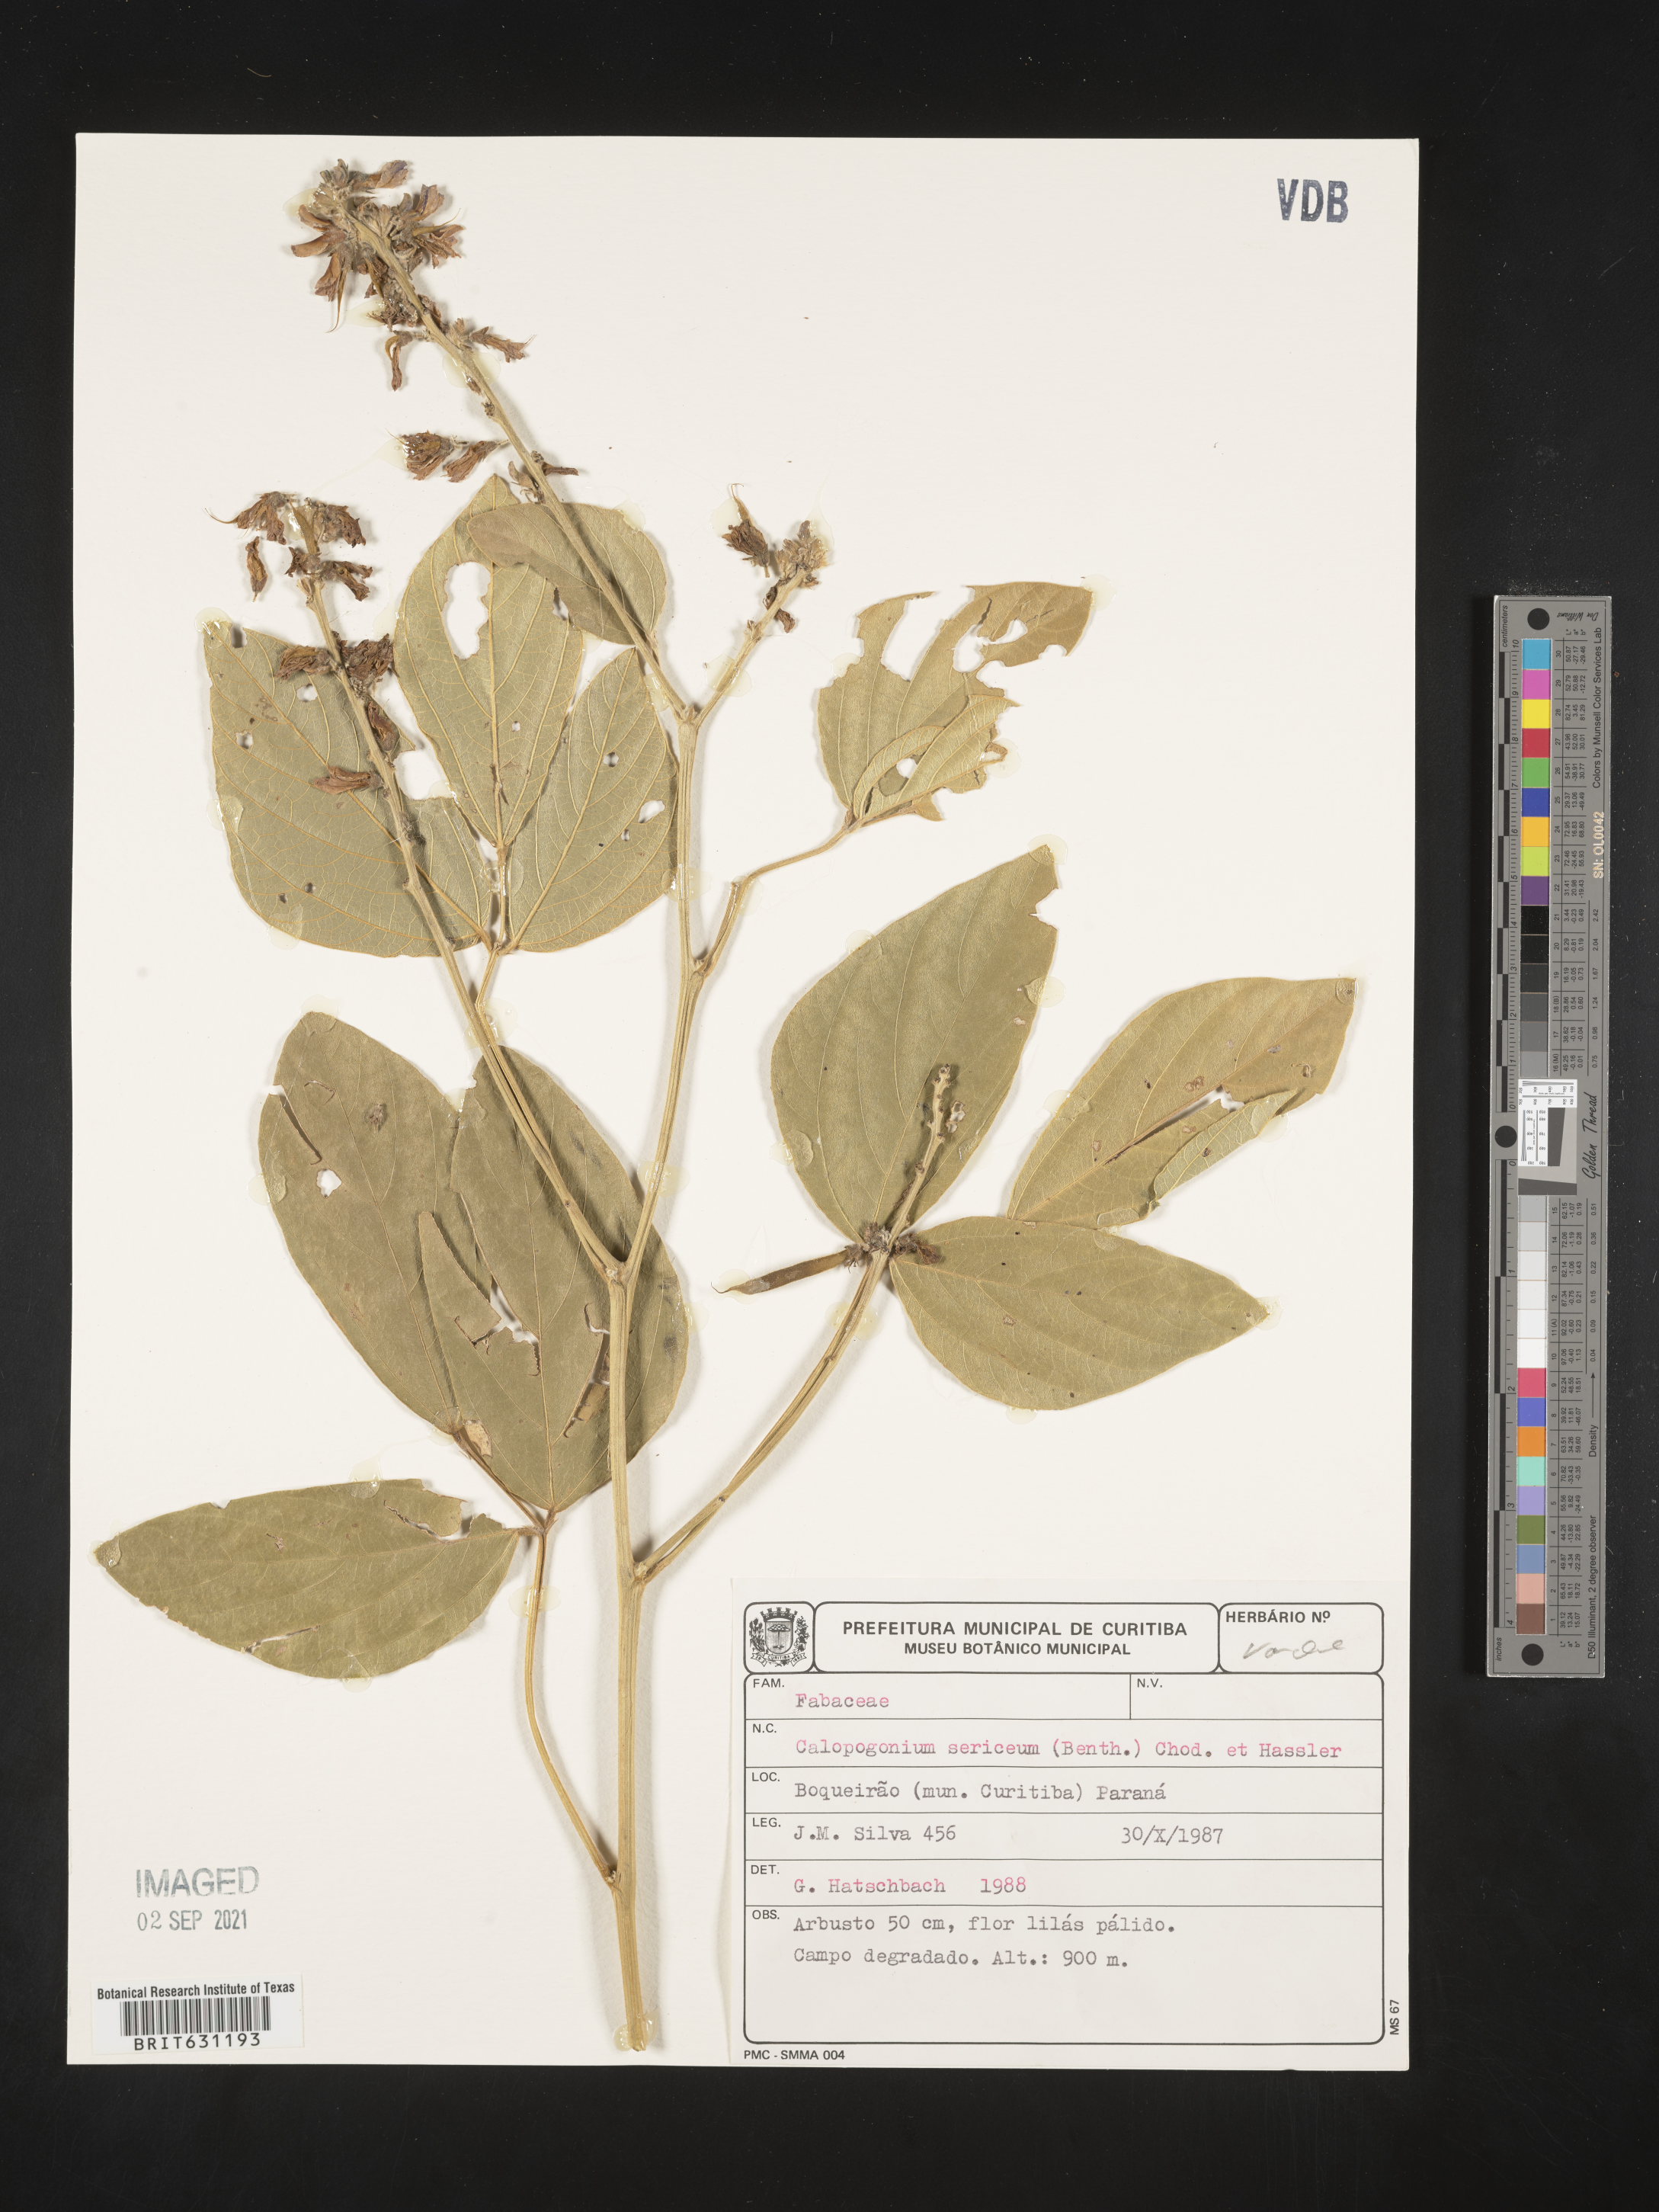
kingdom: Plantae
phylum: Tracheophyta
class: Magnoliopsida
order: Fabales
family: Fabaceae
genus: Calopogonium
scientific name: Calopogonium sericeum
